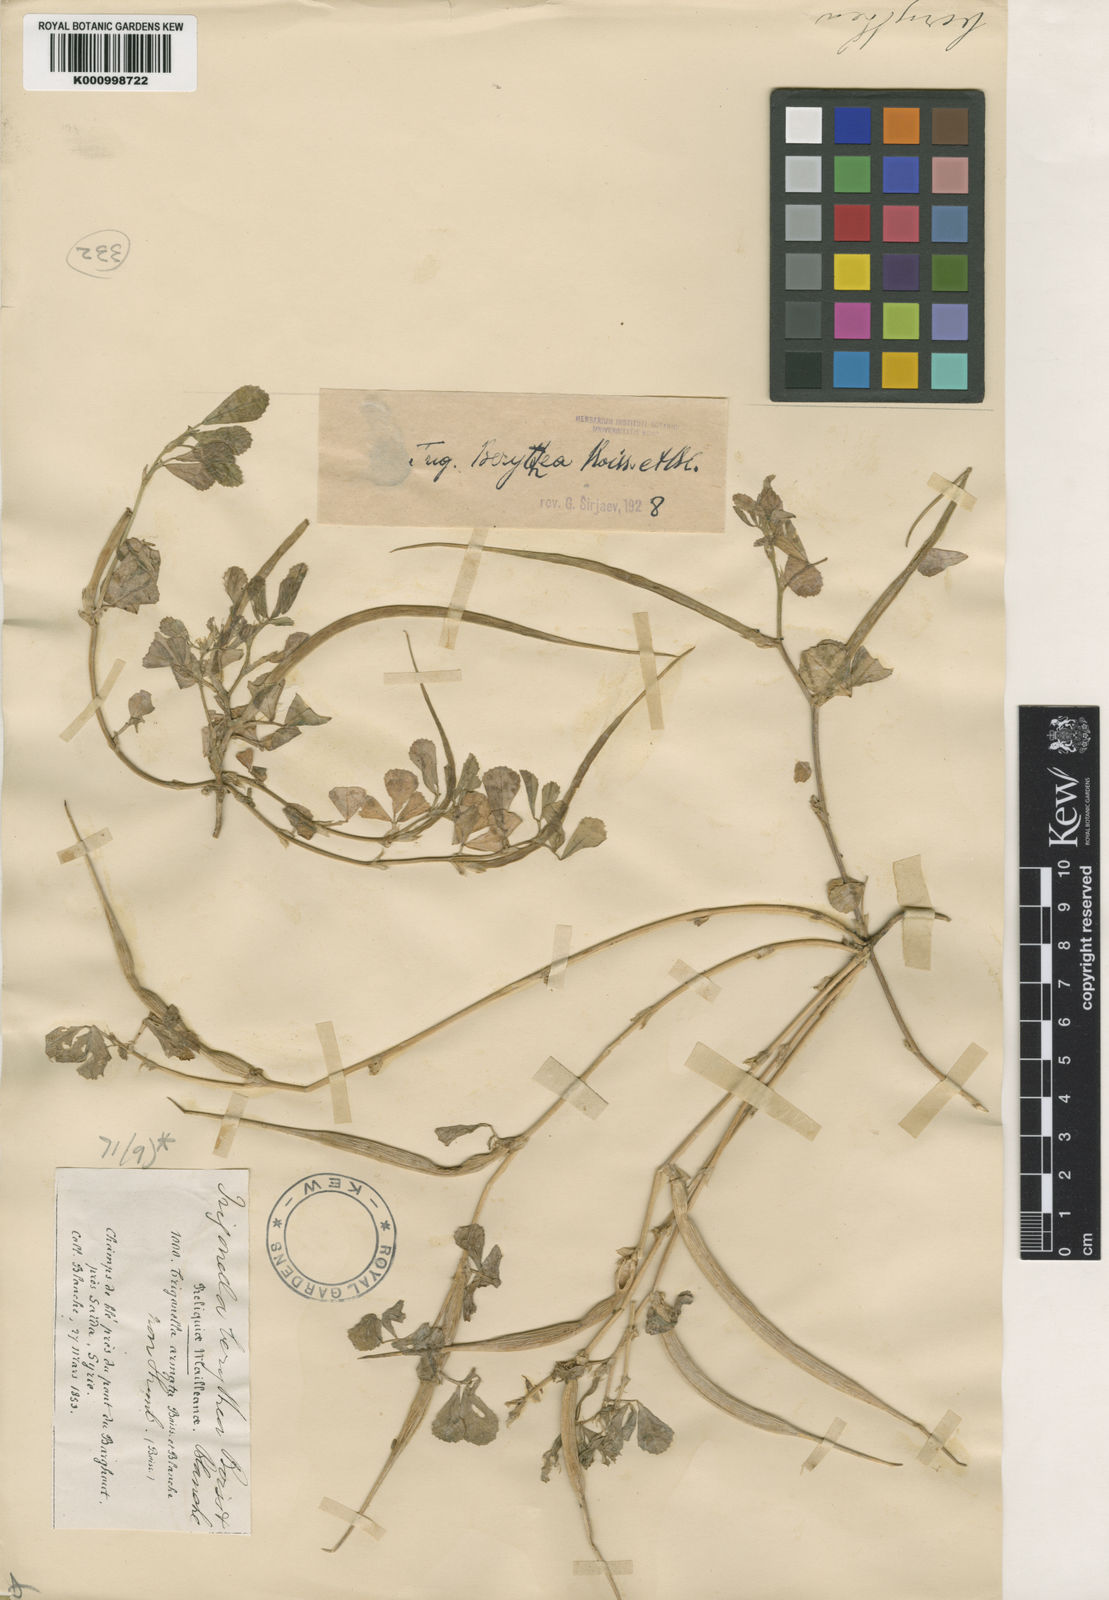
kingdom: Plantae
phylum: Tracheophyta
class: Magnoliopsida
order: Fabales
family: Fabaceae
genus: Trigonella
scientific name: Trigonella berythea
